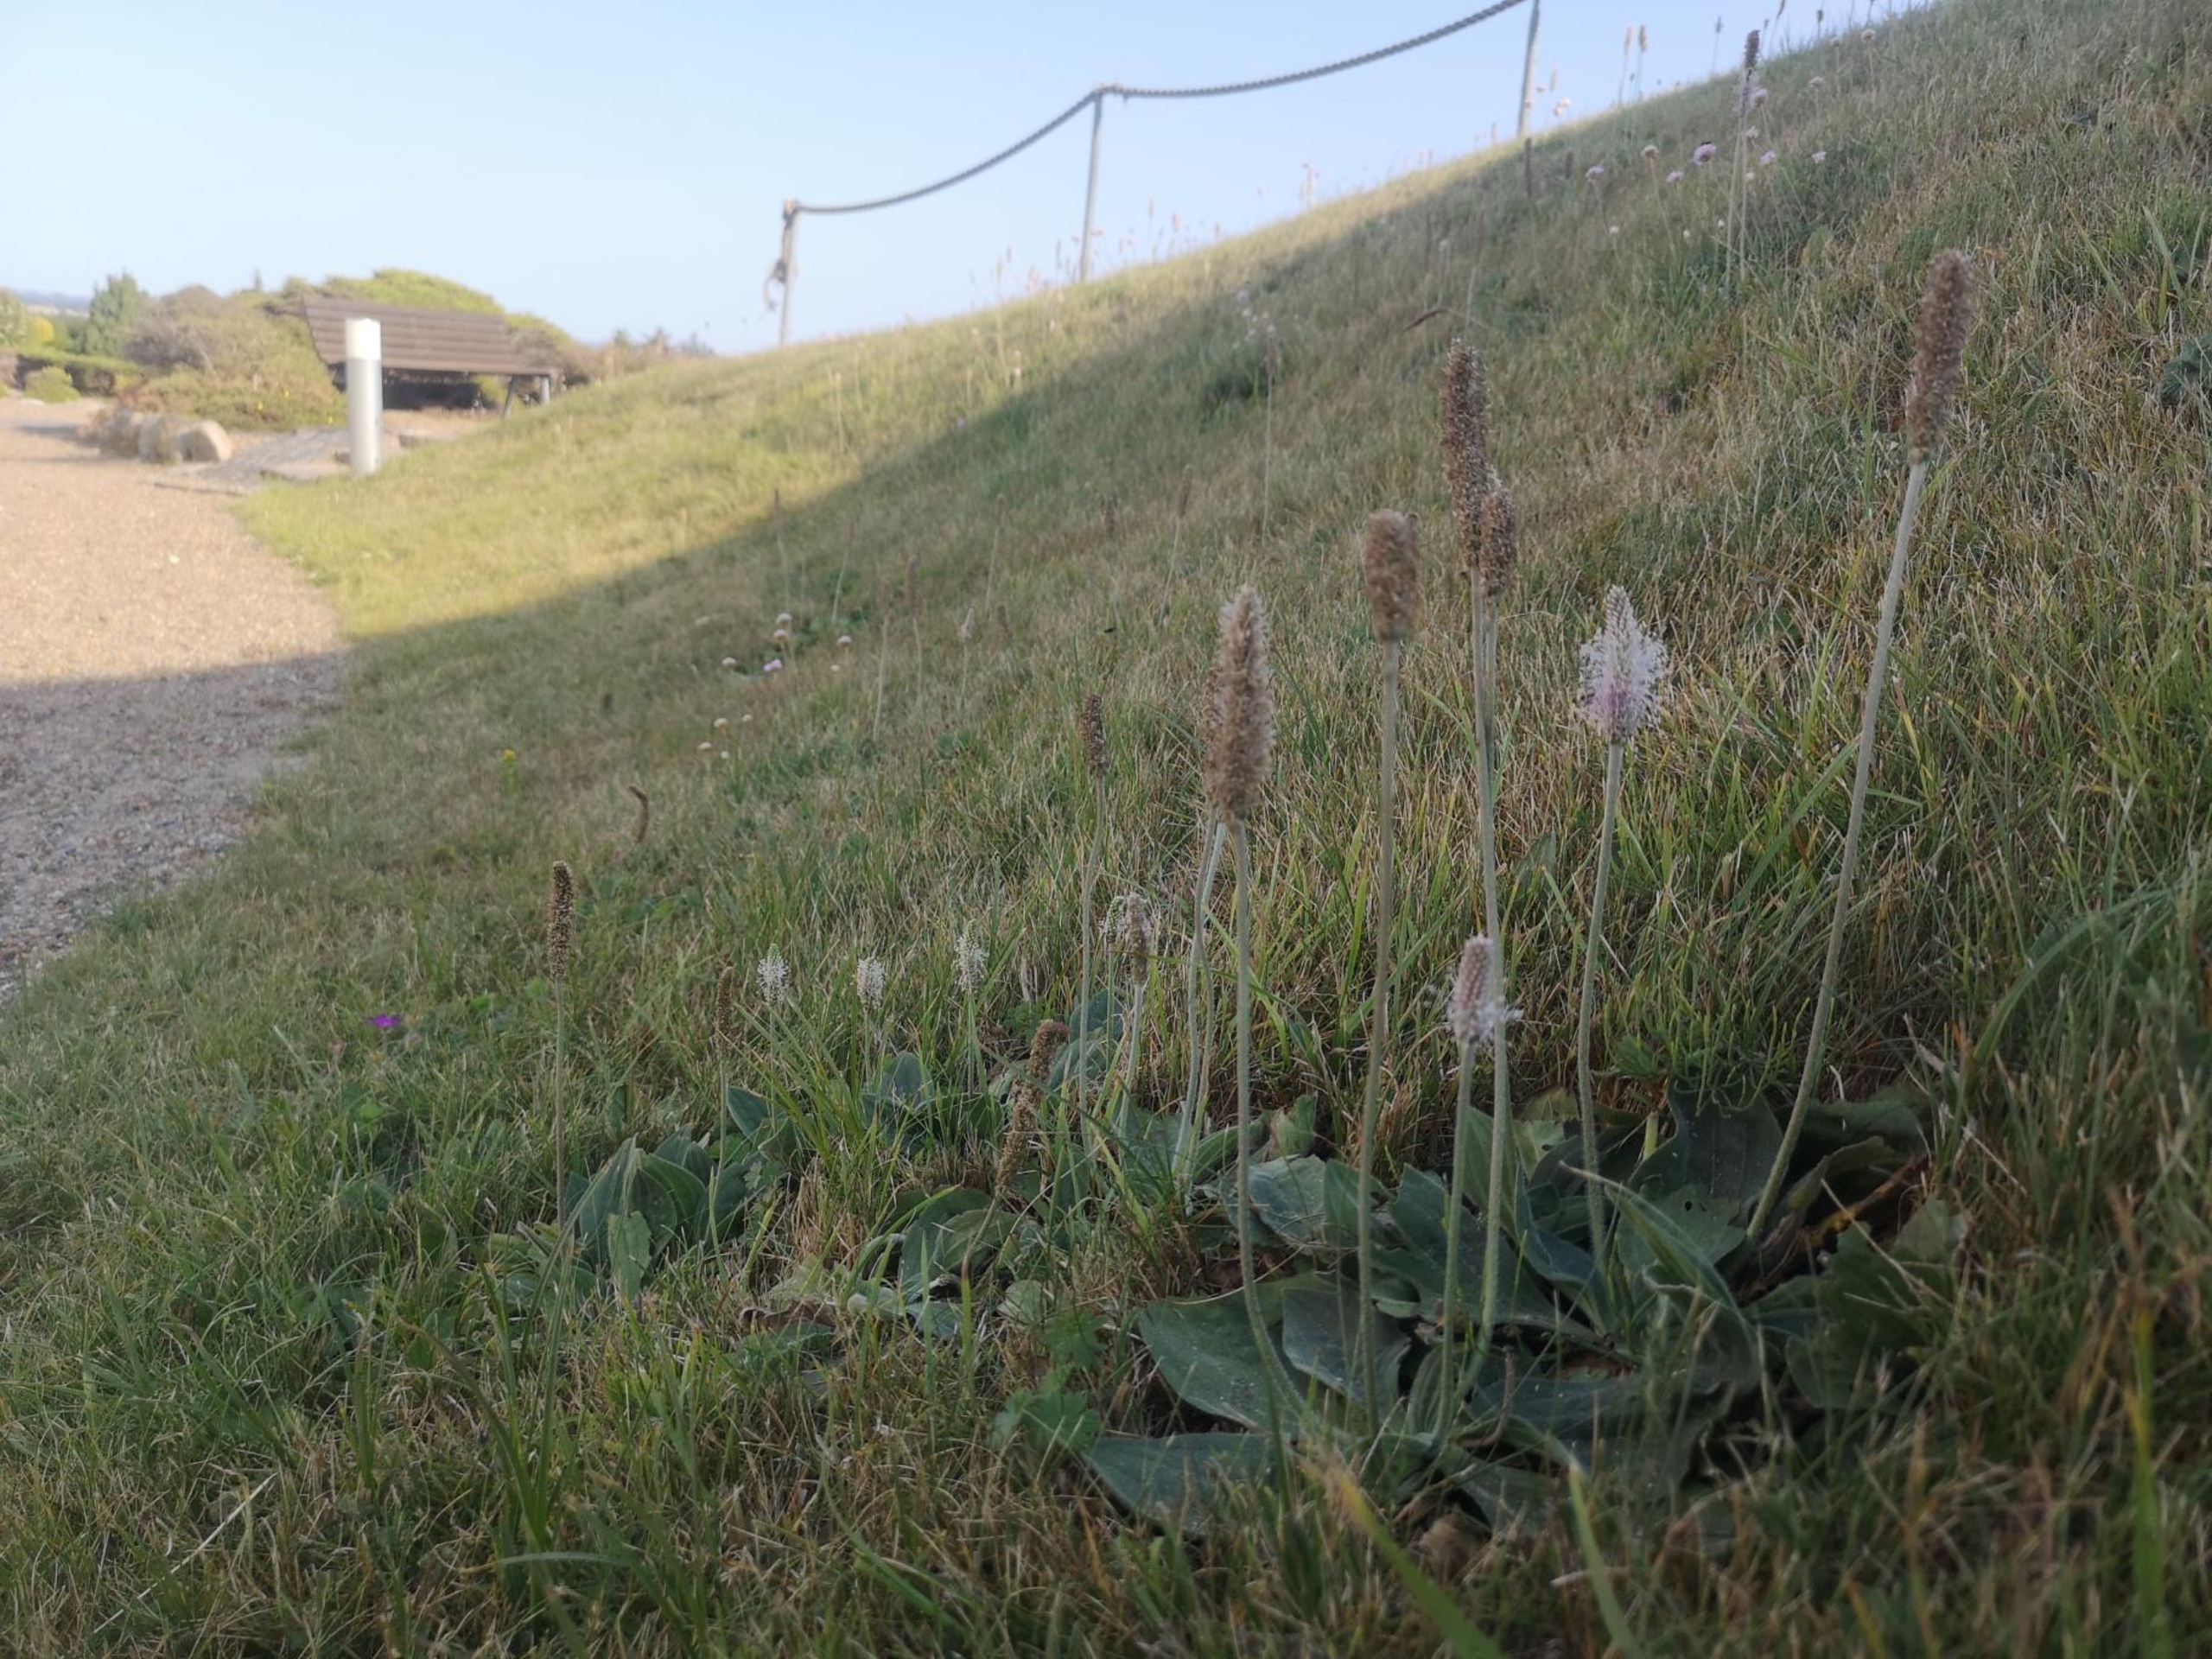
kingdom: Plantae
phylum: Tracheophyta
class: Magnoliopsida
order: Lamiales
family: Plantaginaceae
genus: Plantago
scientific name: Plantago media
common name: Dunet vejbred
